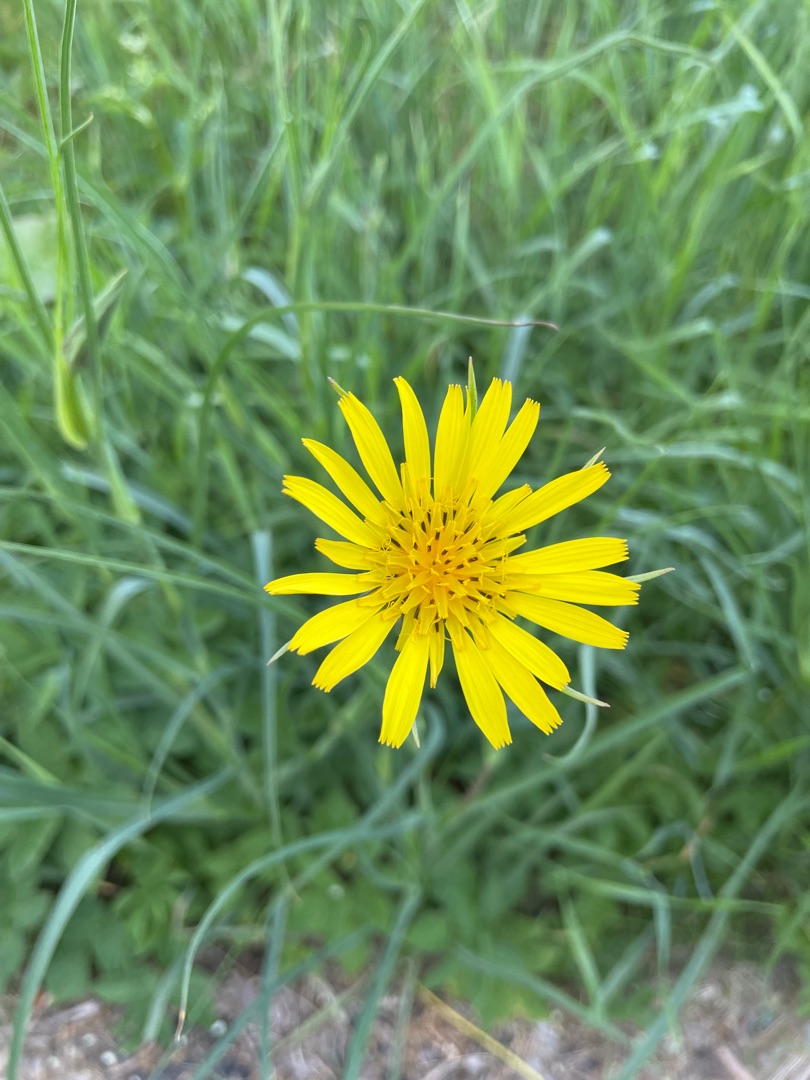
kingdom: Plantae
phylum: Tracheophyta
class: Magnoliopsida
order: Asterales
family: Asteraceae
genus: Tragopogon
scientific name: Tragopogon pratensis
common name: Eng-gedeskæg
